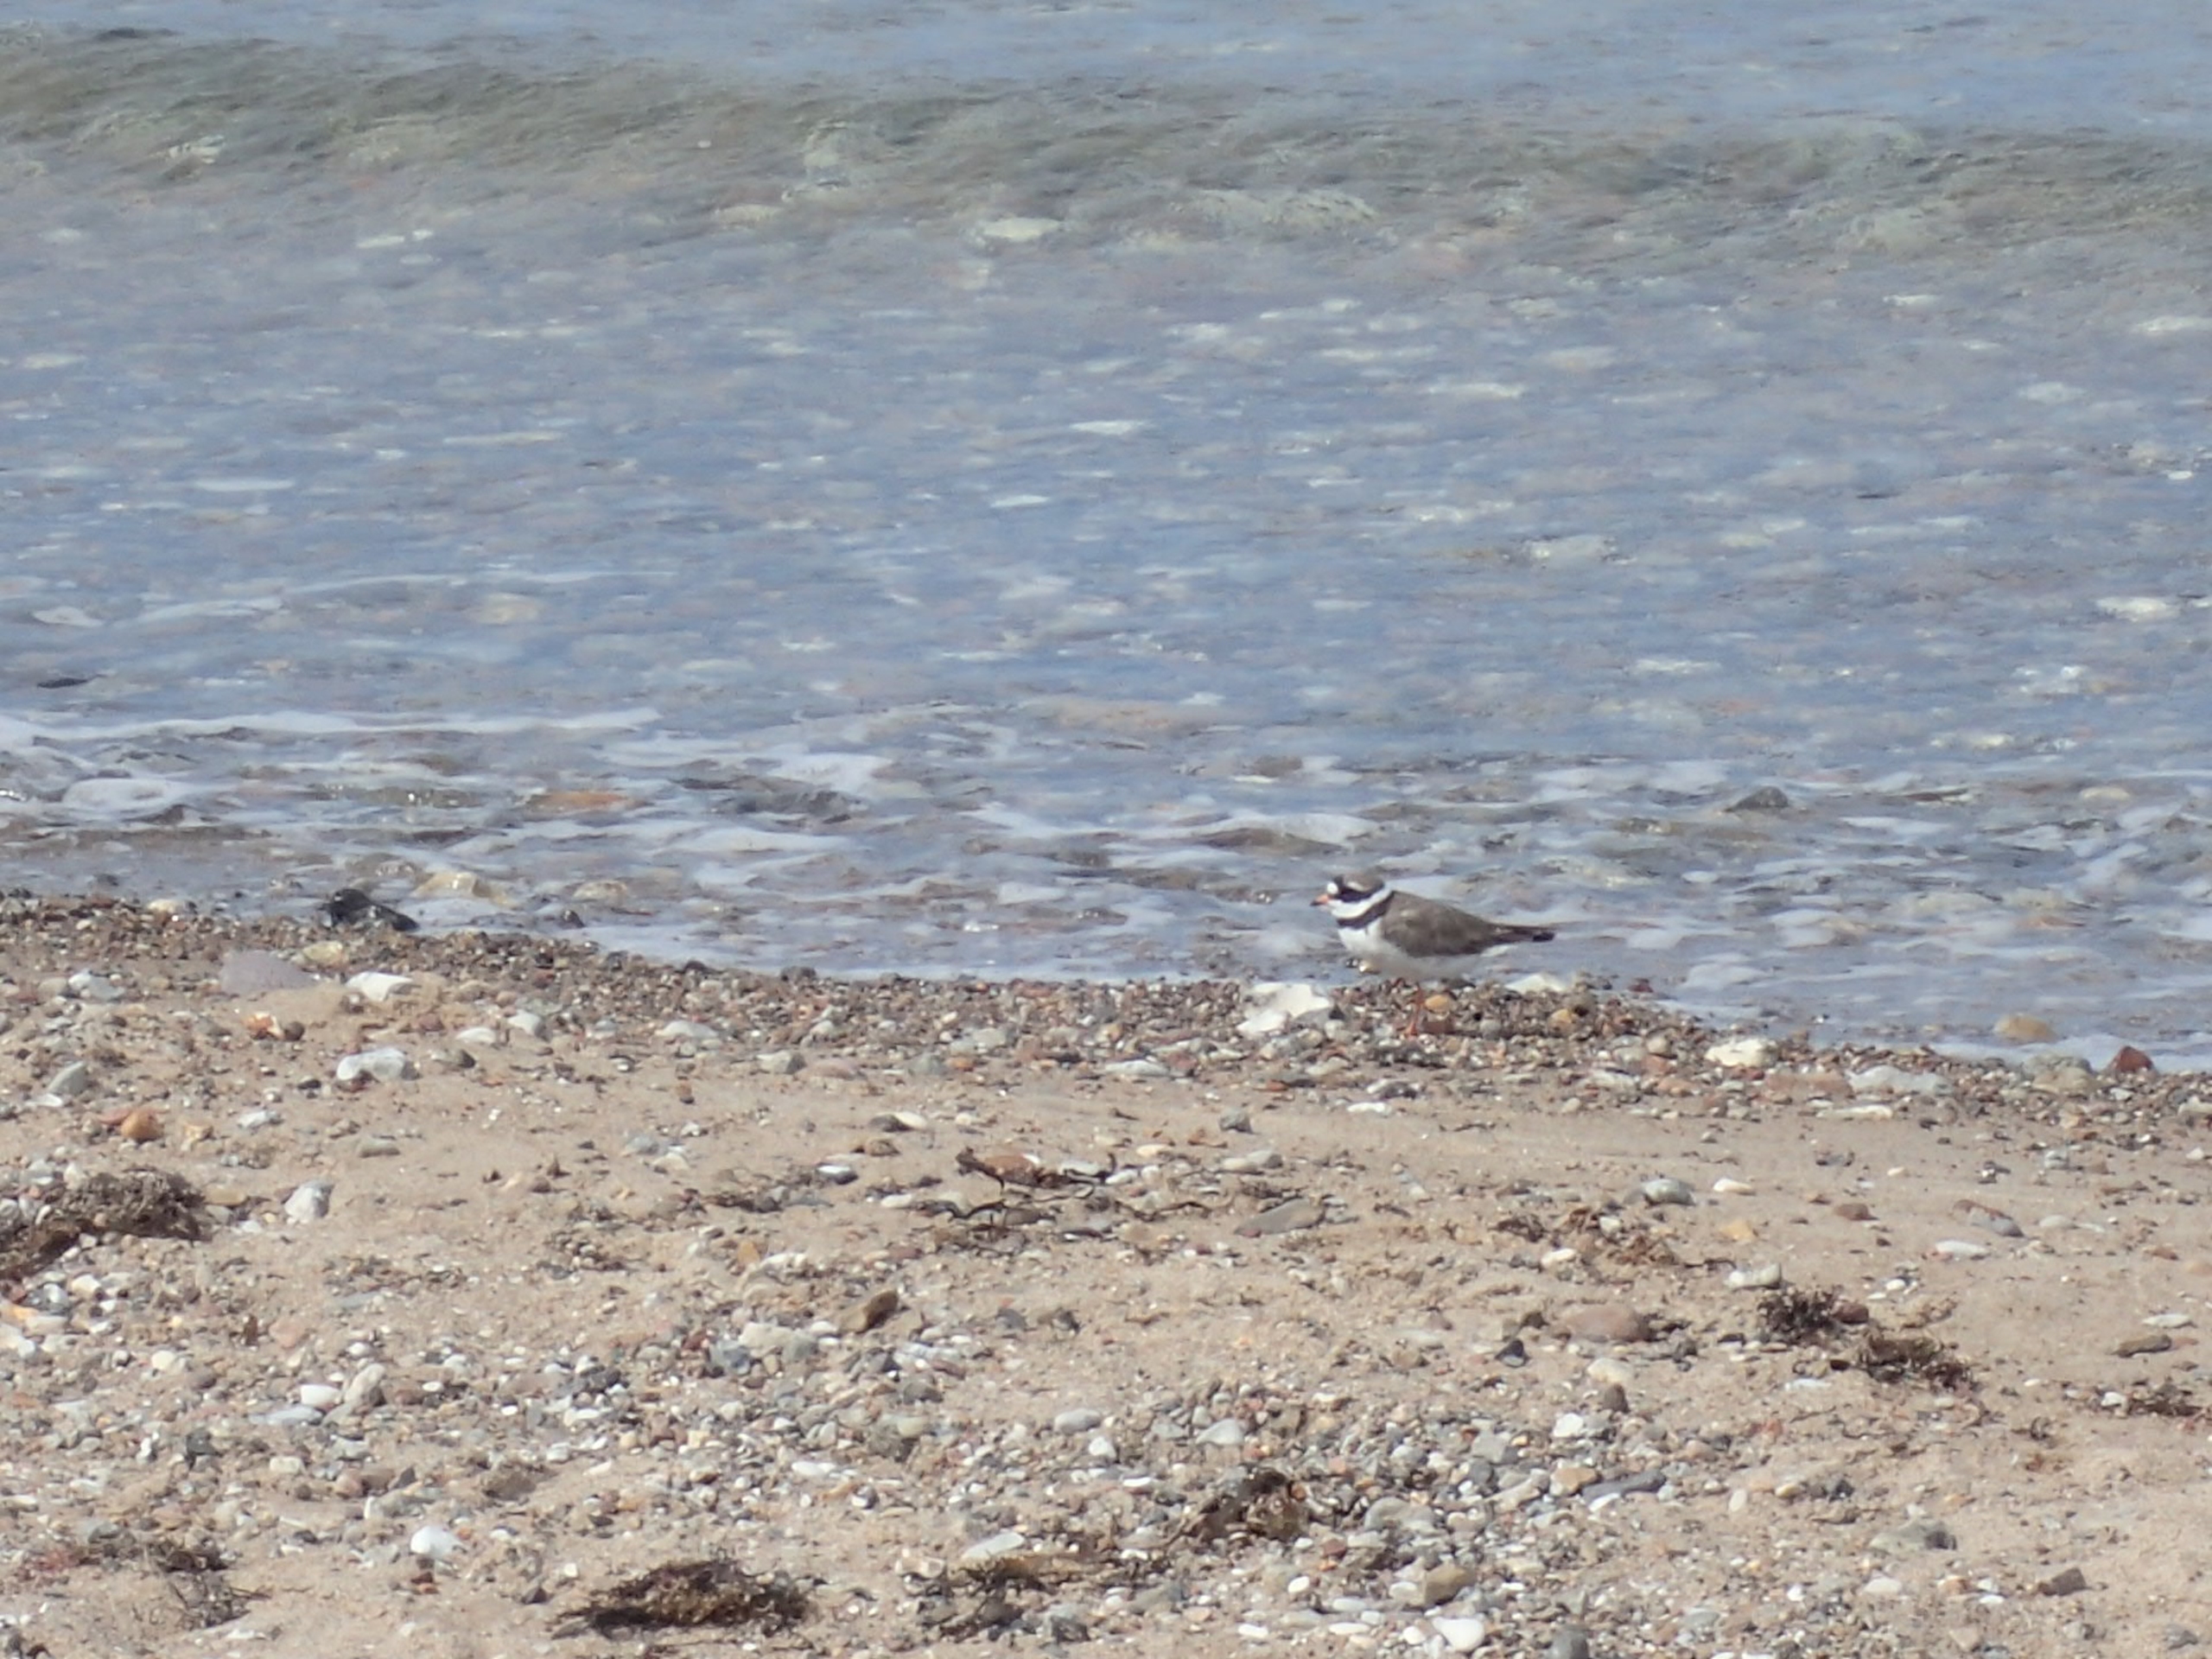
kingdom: Animalia
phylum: Chordata
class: Aves
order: Charadriiformes
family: Charadriidae
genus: Charadrius
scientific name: Charadrius hiaticula
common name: Stor præstekrave
